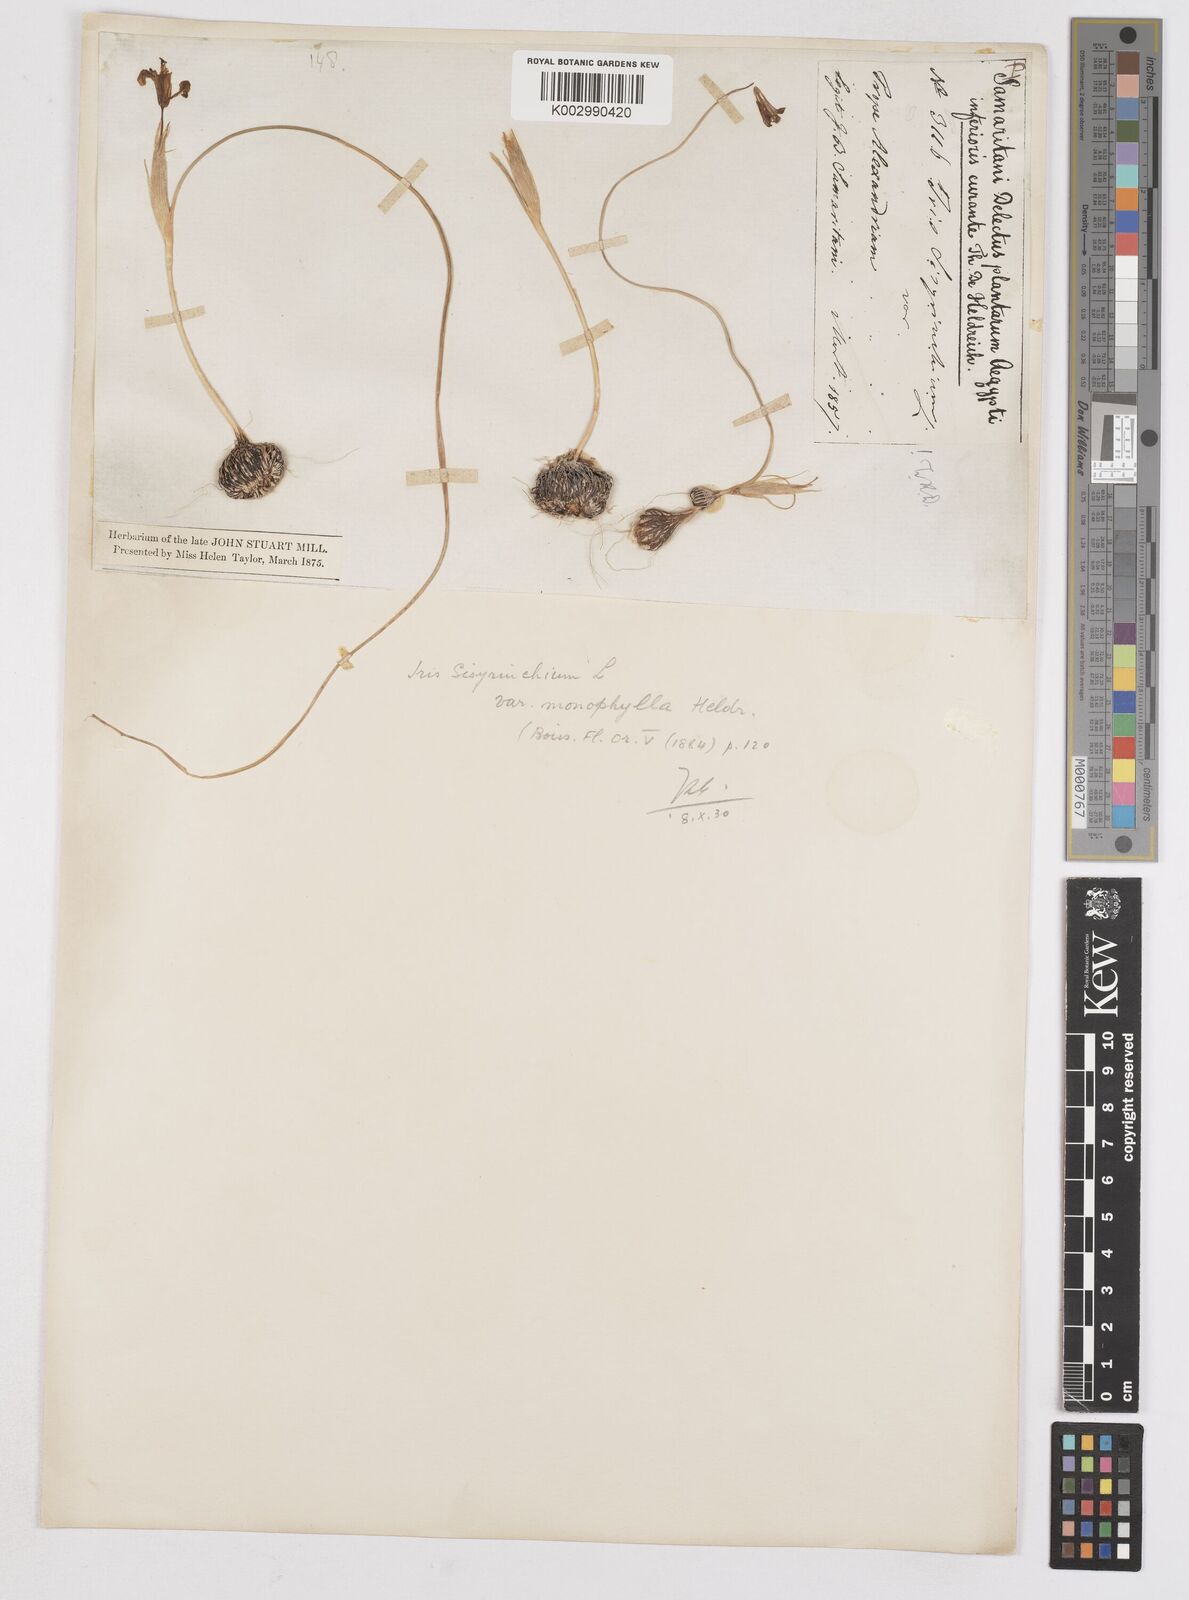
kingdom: Plantae
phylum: Tracheophyta
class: Liliopsida
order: Asparagales
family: Iridaceae
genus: Moraea
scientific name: Moraea
